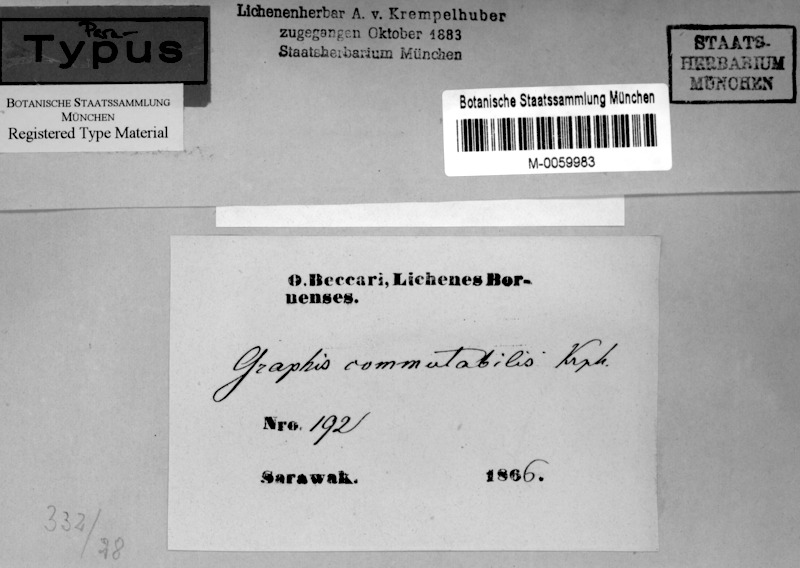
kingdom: Fungi
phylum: Ascomycota
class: Lecanoromycetes
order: Ostropales
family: Graphidaceae
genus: Platygramme
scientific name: Platygramme commutabilis
